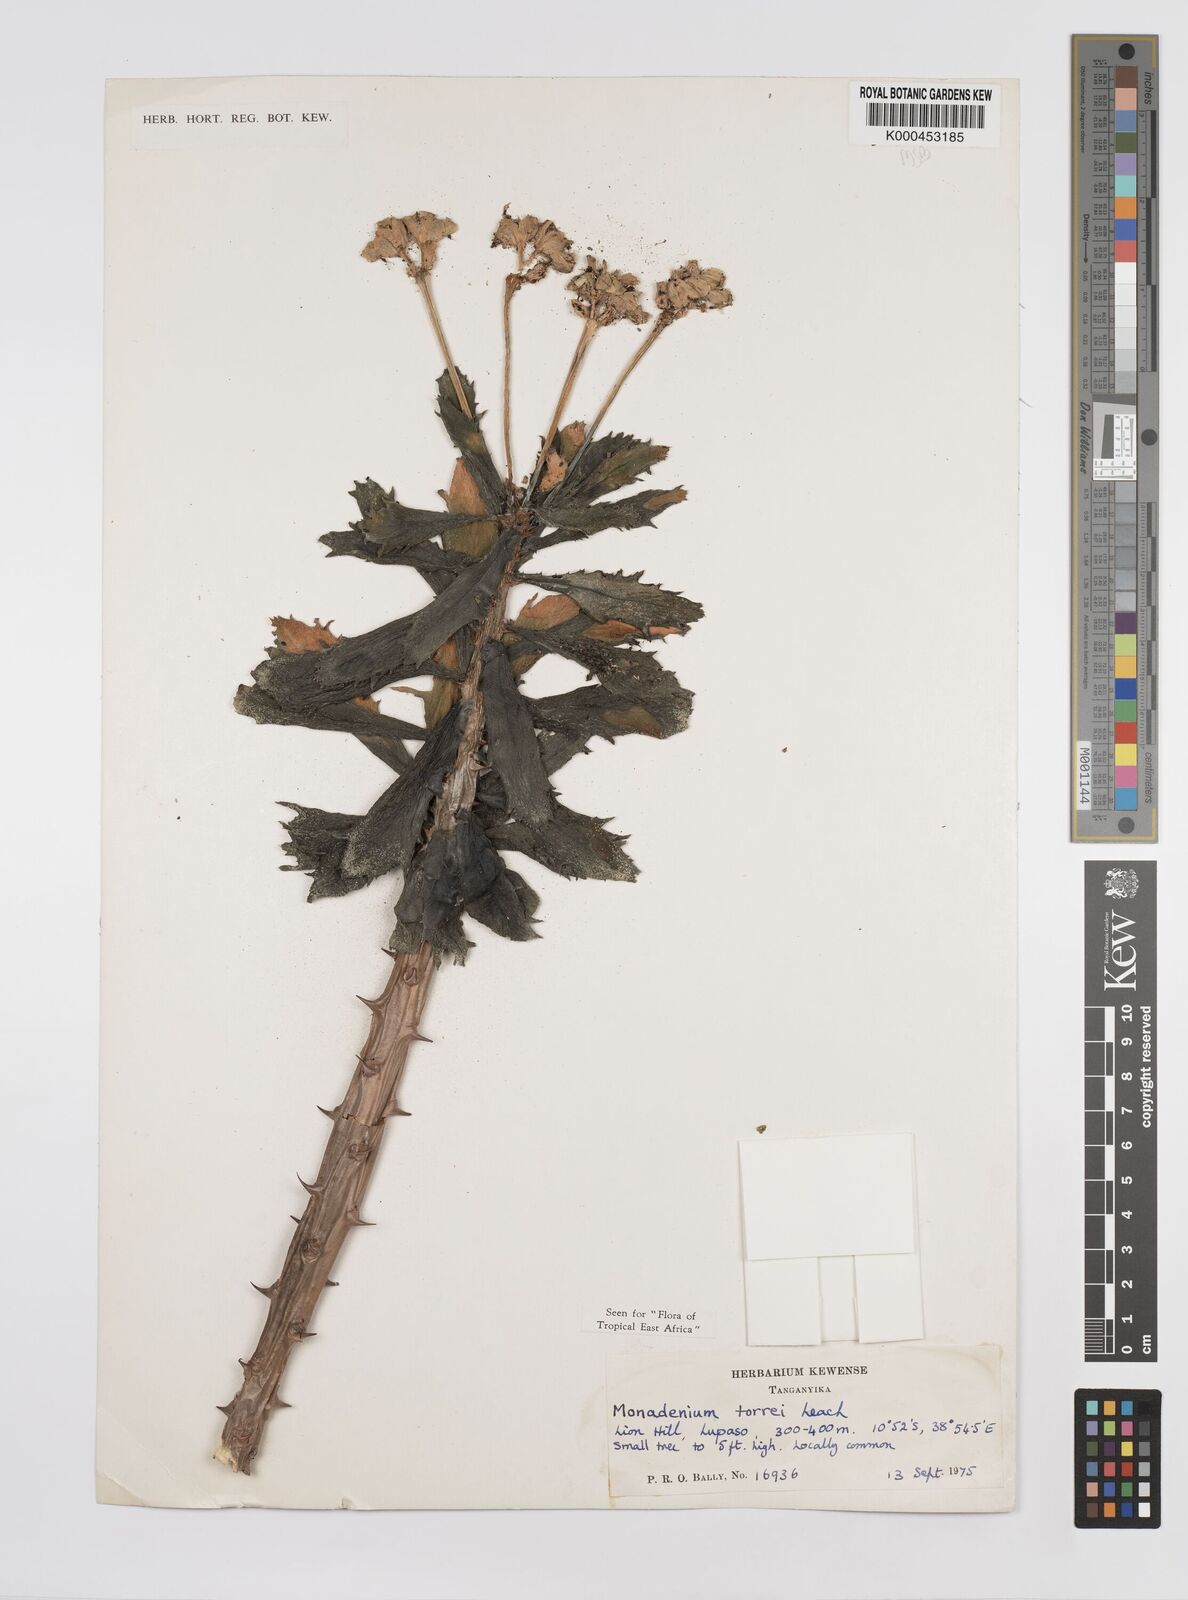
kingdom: Plantae
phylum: Tracheophyta
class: Magnoliopsida
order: Malpighiales
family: Euphorbiaceae
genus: Euphorbia
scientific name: Euphorbia torrei
